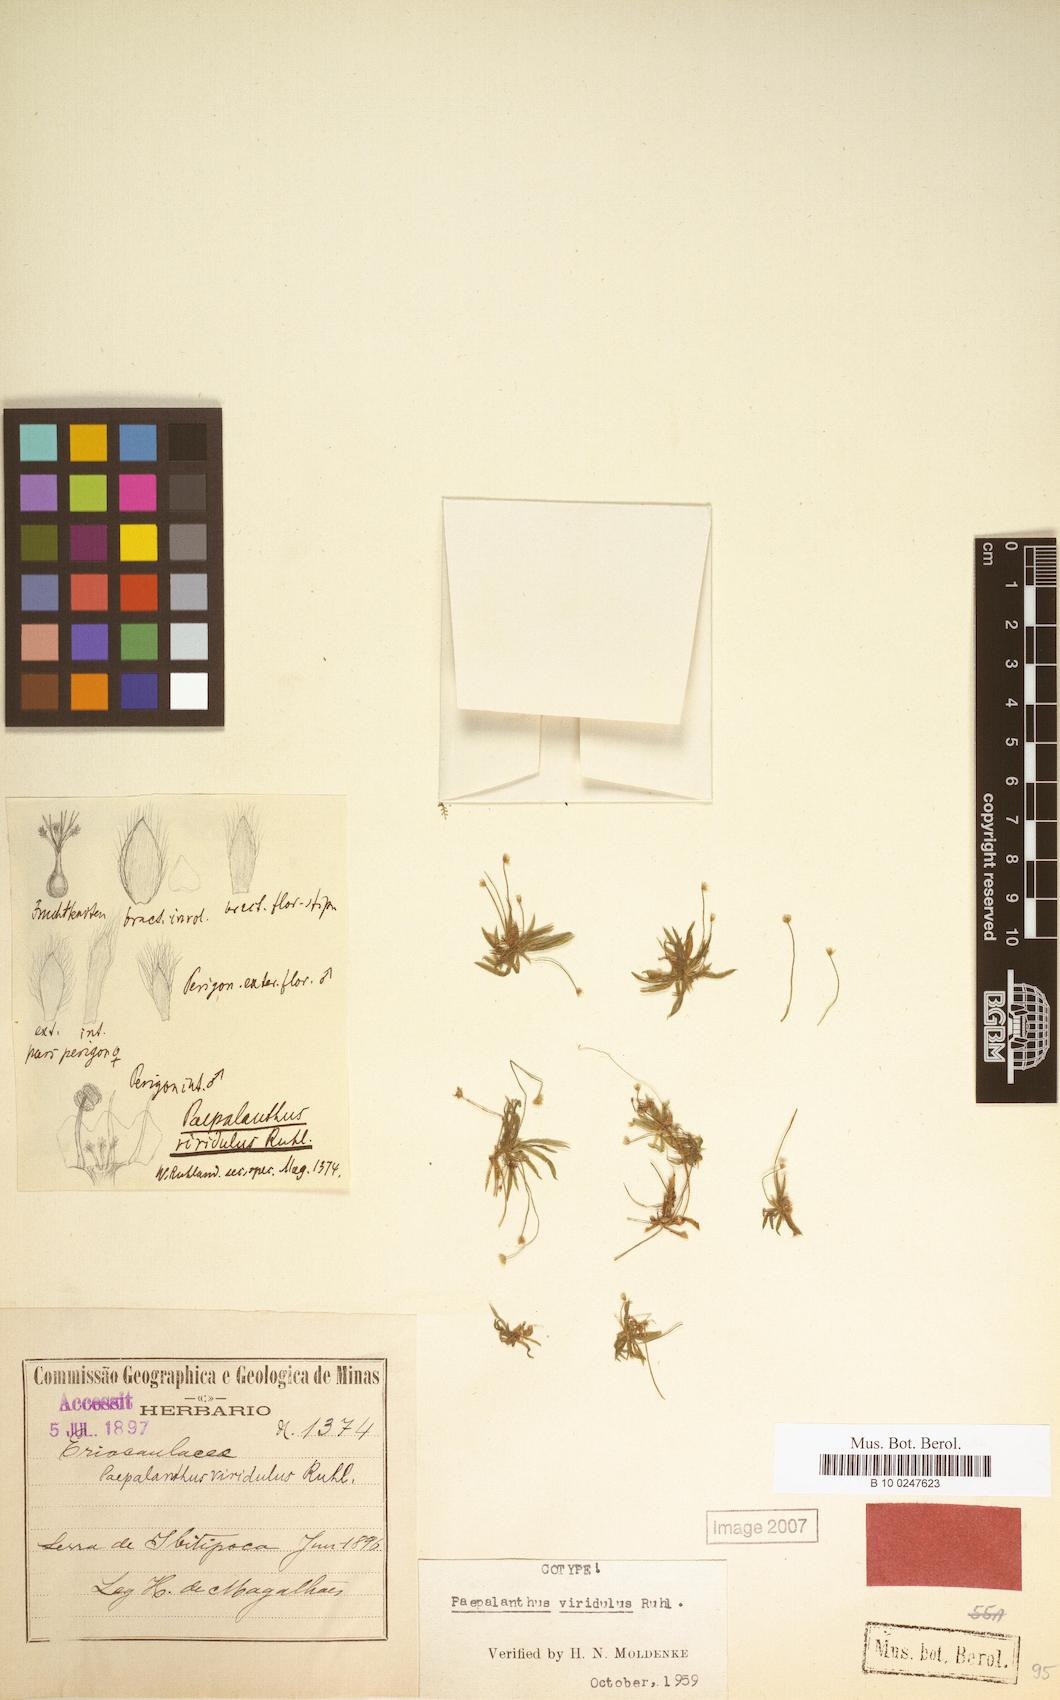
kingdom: Plantae
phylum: Tracheophyta
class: Liliopsida
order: Poales
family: Eriocaulaceae
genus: Paepalanthus
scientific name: Paepalanthus viridulus
